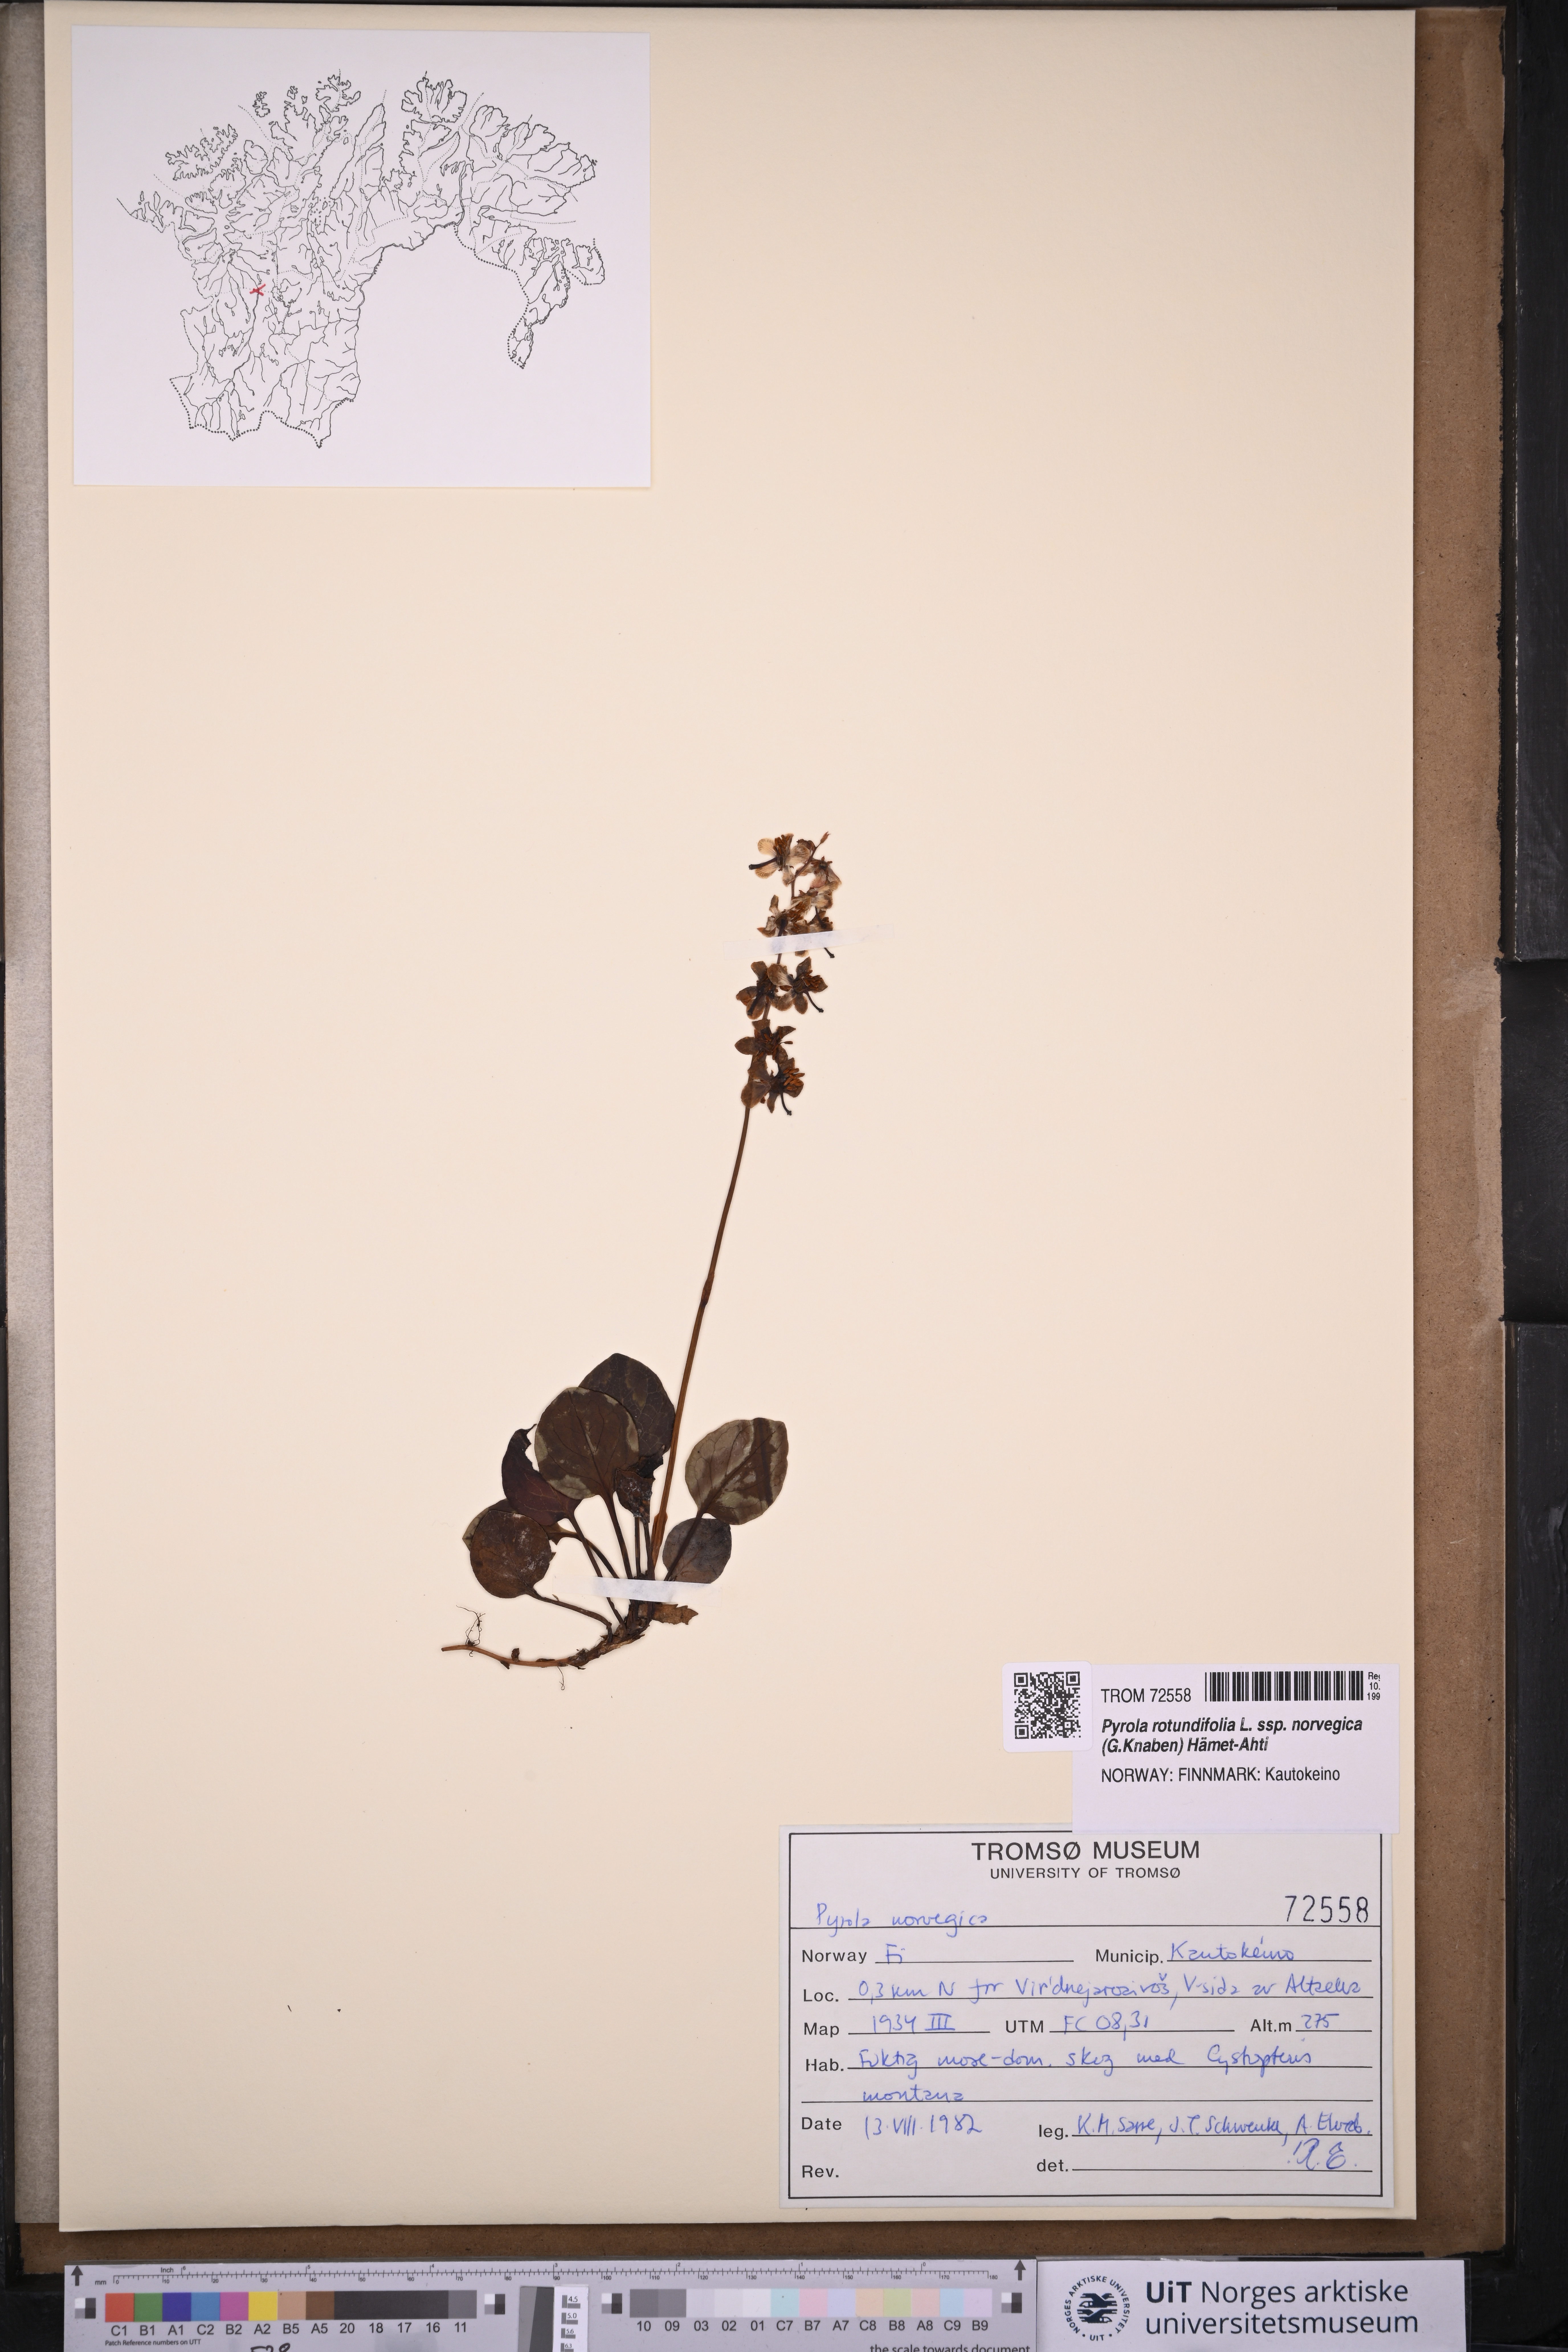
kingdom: Plantae
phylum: Tracheophyta
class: Magnoliopsida
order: Ericales
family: Ericaceae
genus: Pyrola
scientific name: Pyrola rotundifolia
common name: Round-leaved wintergreen
